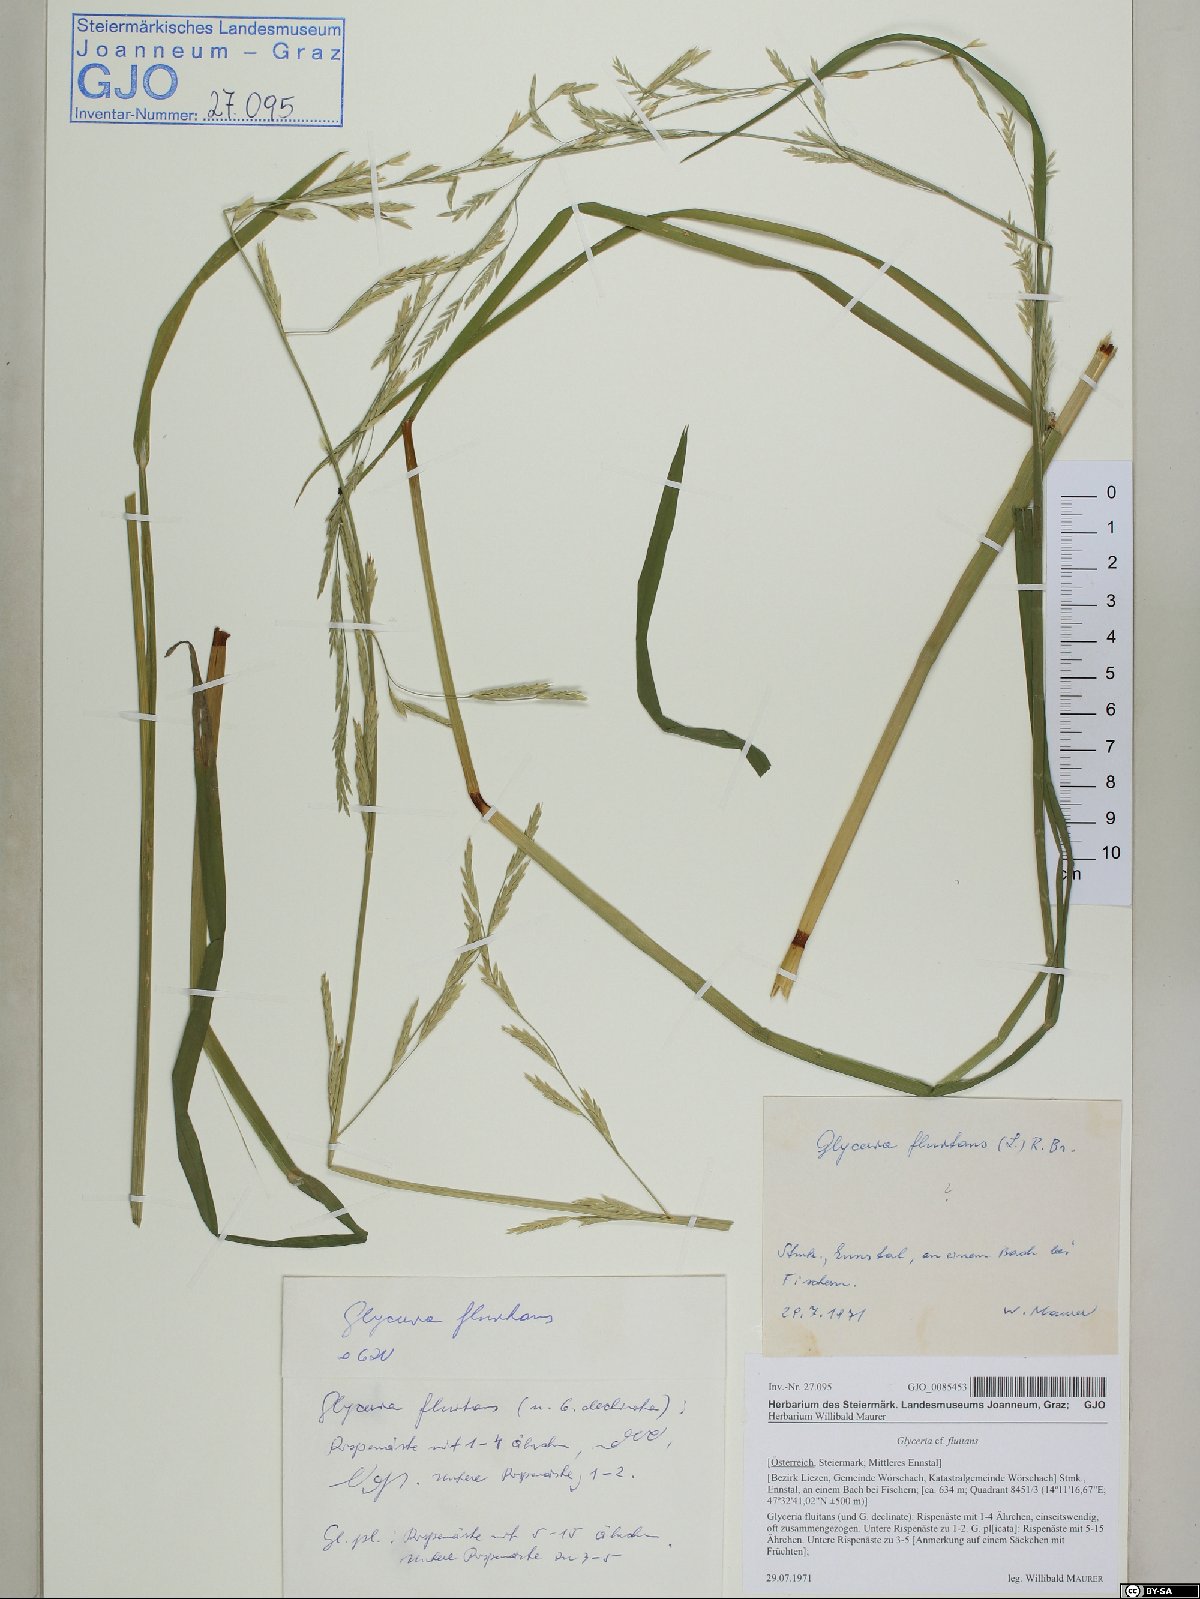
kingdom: Plantae
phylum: Tracheophyta
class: Liliopsida
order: Poales
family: Poaceae
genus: Glyceria
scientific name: Glyceria fluitans
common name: Floating sweet-grass
